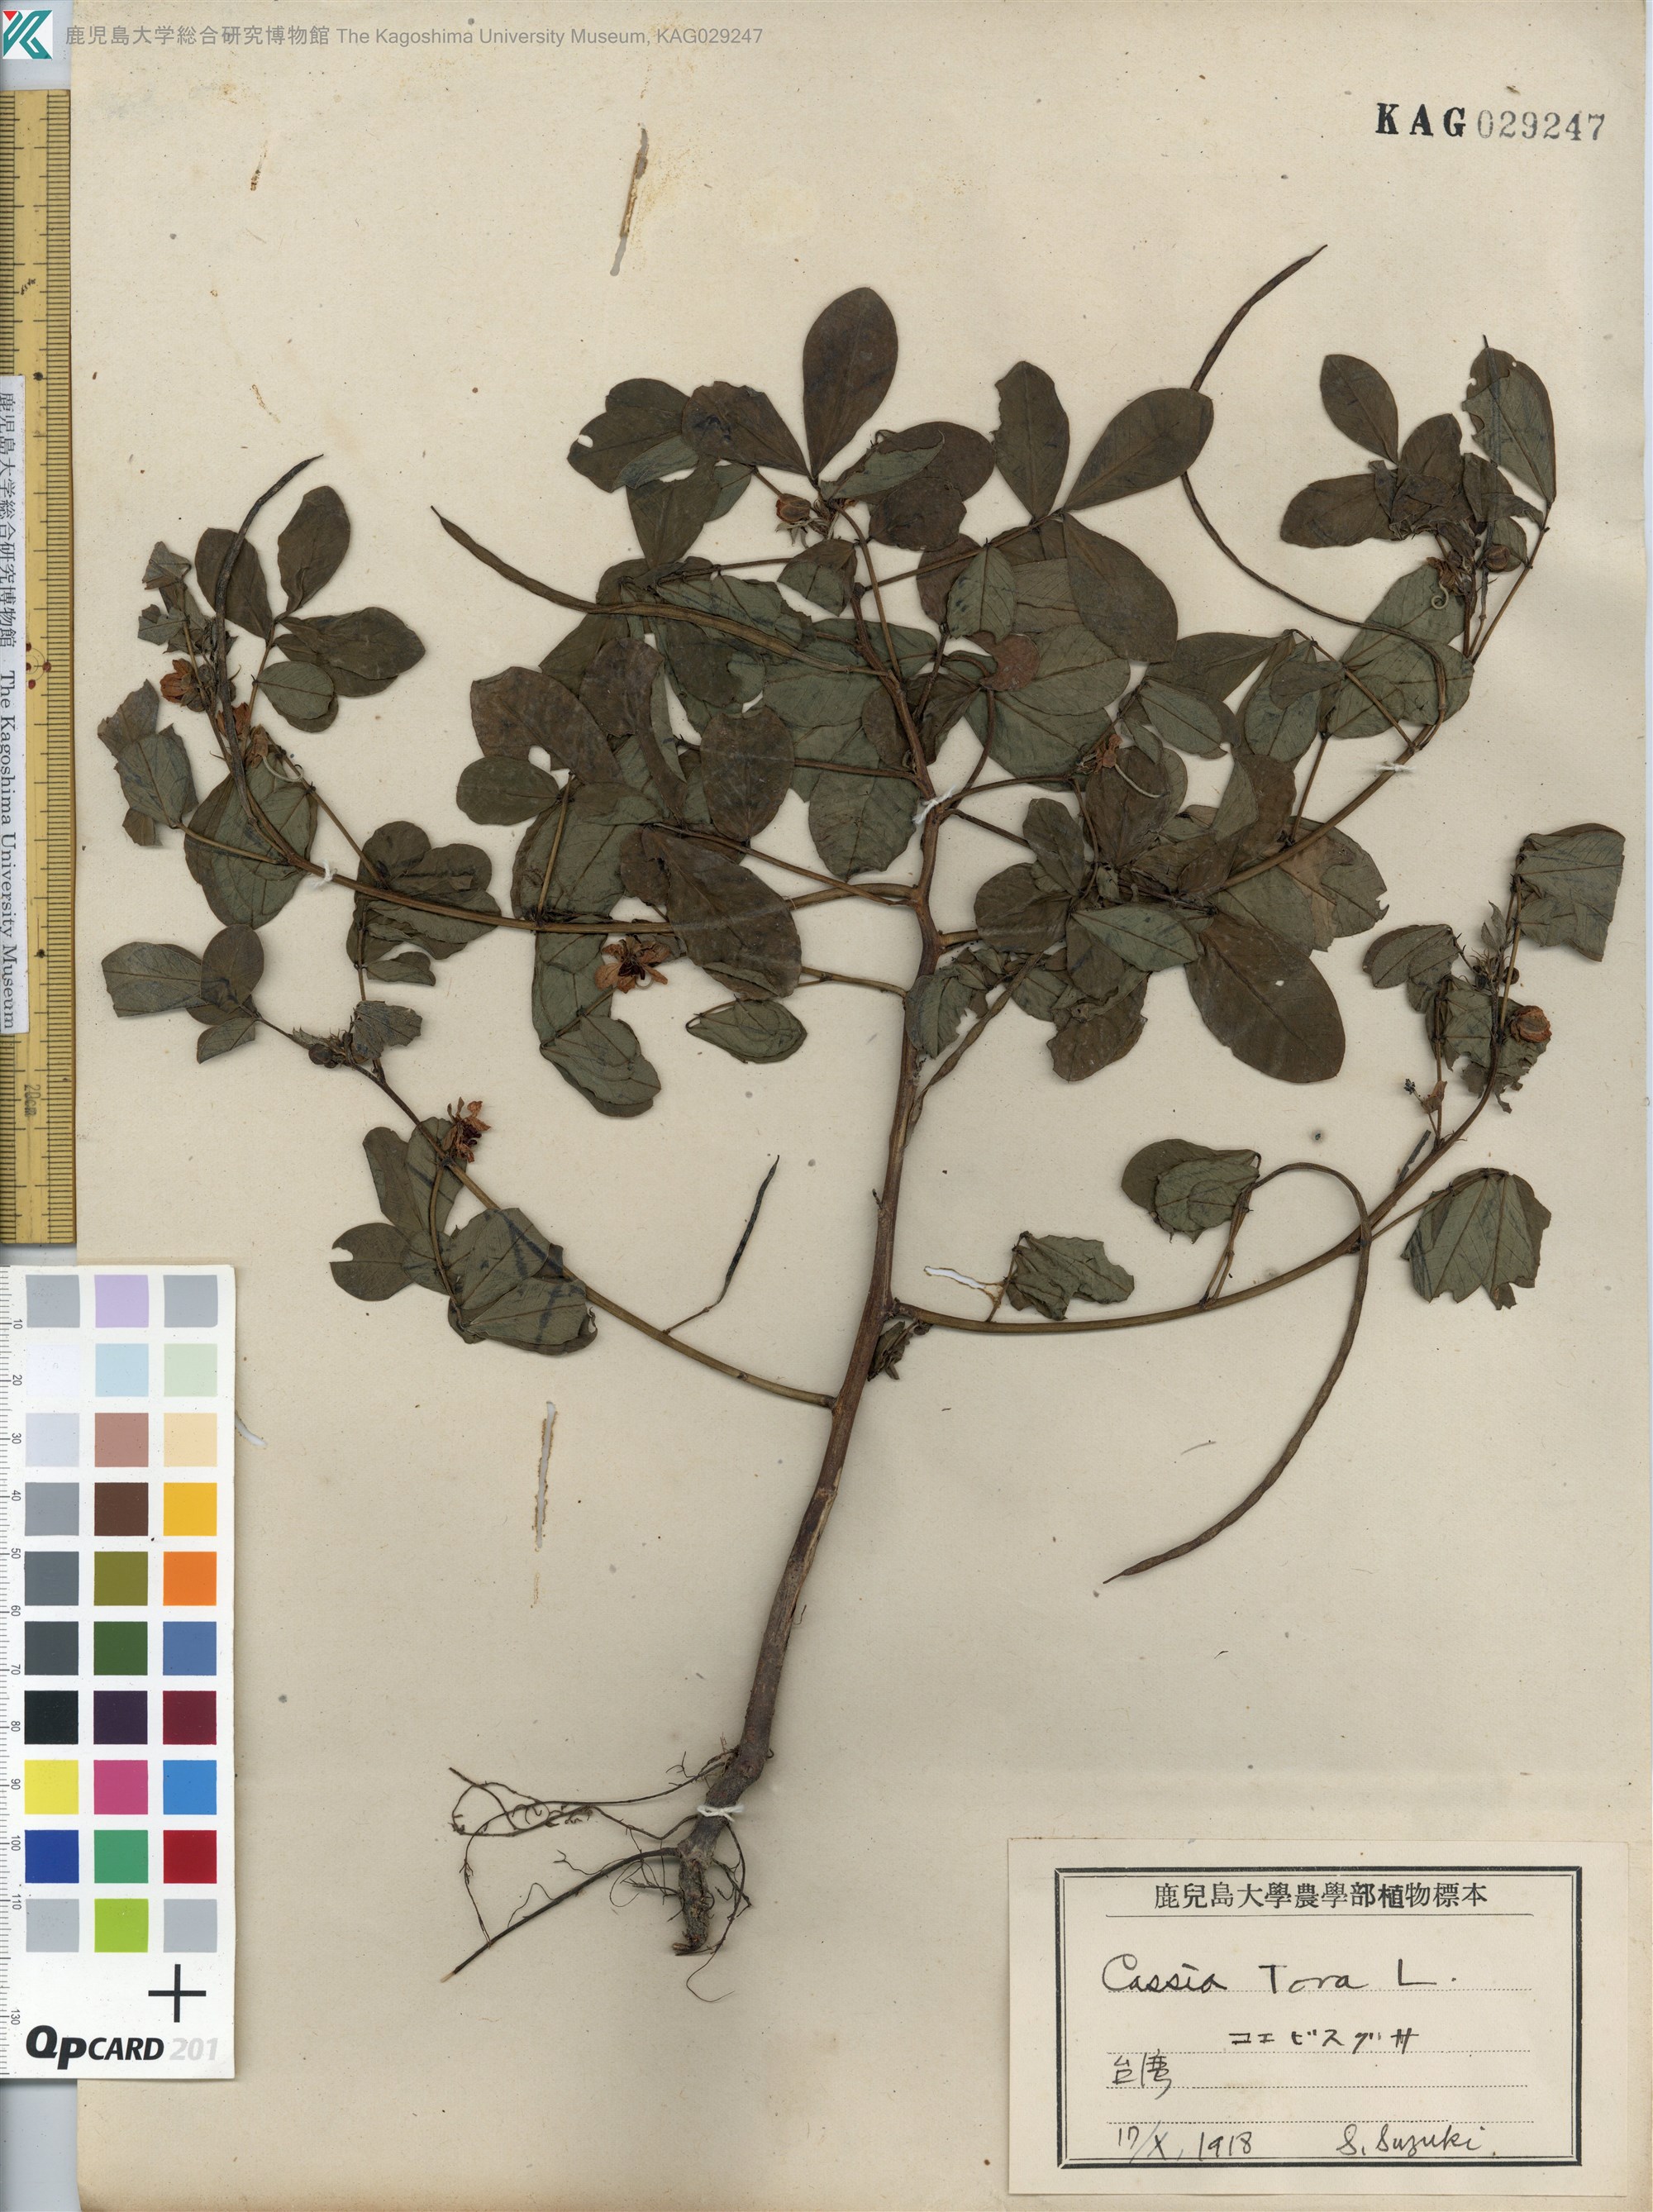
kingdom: Plantae
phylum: Tracheophyta
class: Magnoliopsida
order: Fabales
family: Fabaceae
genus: Senna
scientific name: Senna tora
